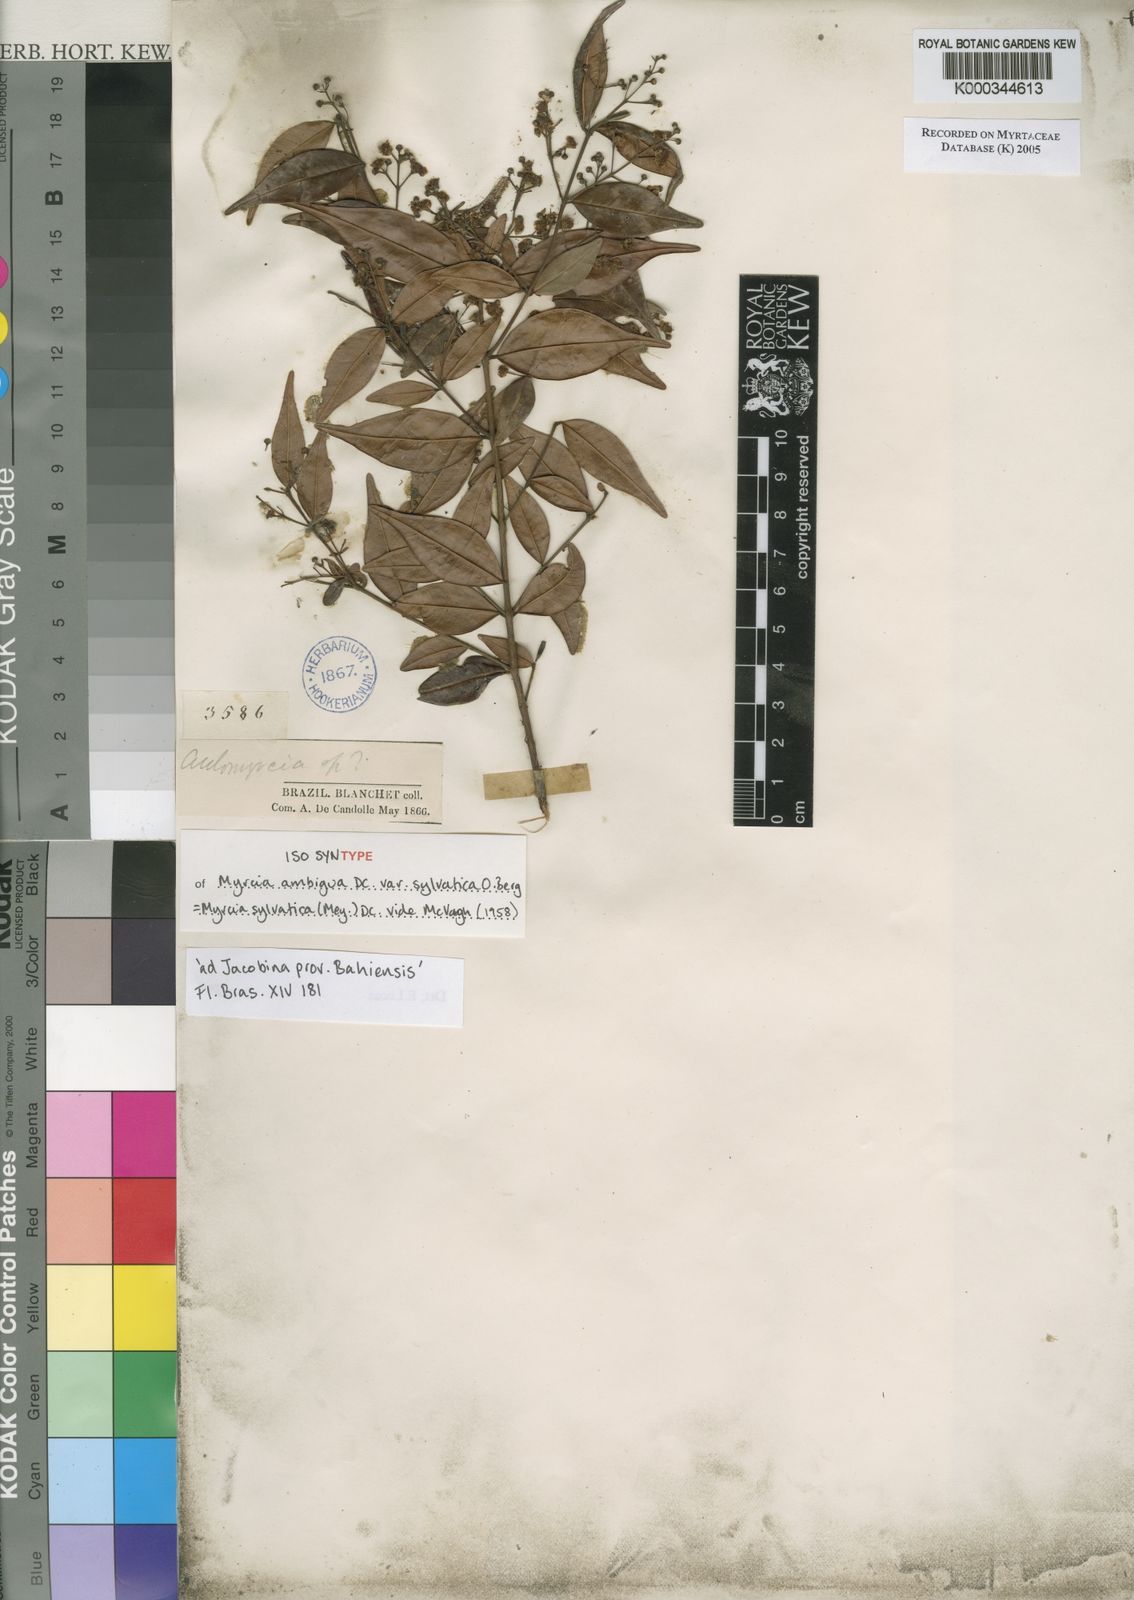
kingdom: Plantae
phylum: Tracheophyta
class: Magnoliopsida
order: Myrtales
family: Myrtaceae
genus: Myrcia
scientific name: Myrcia sylvatica
